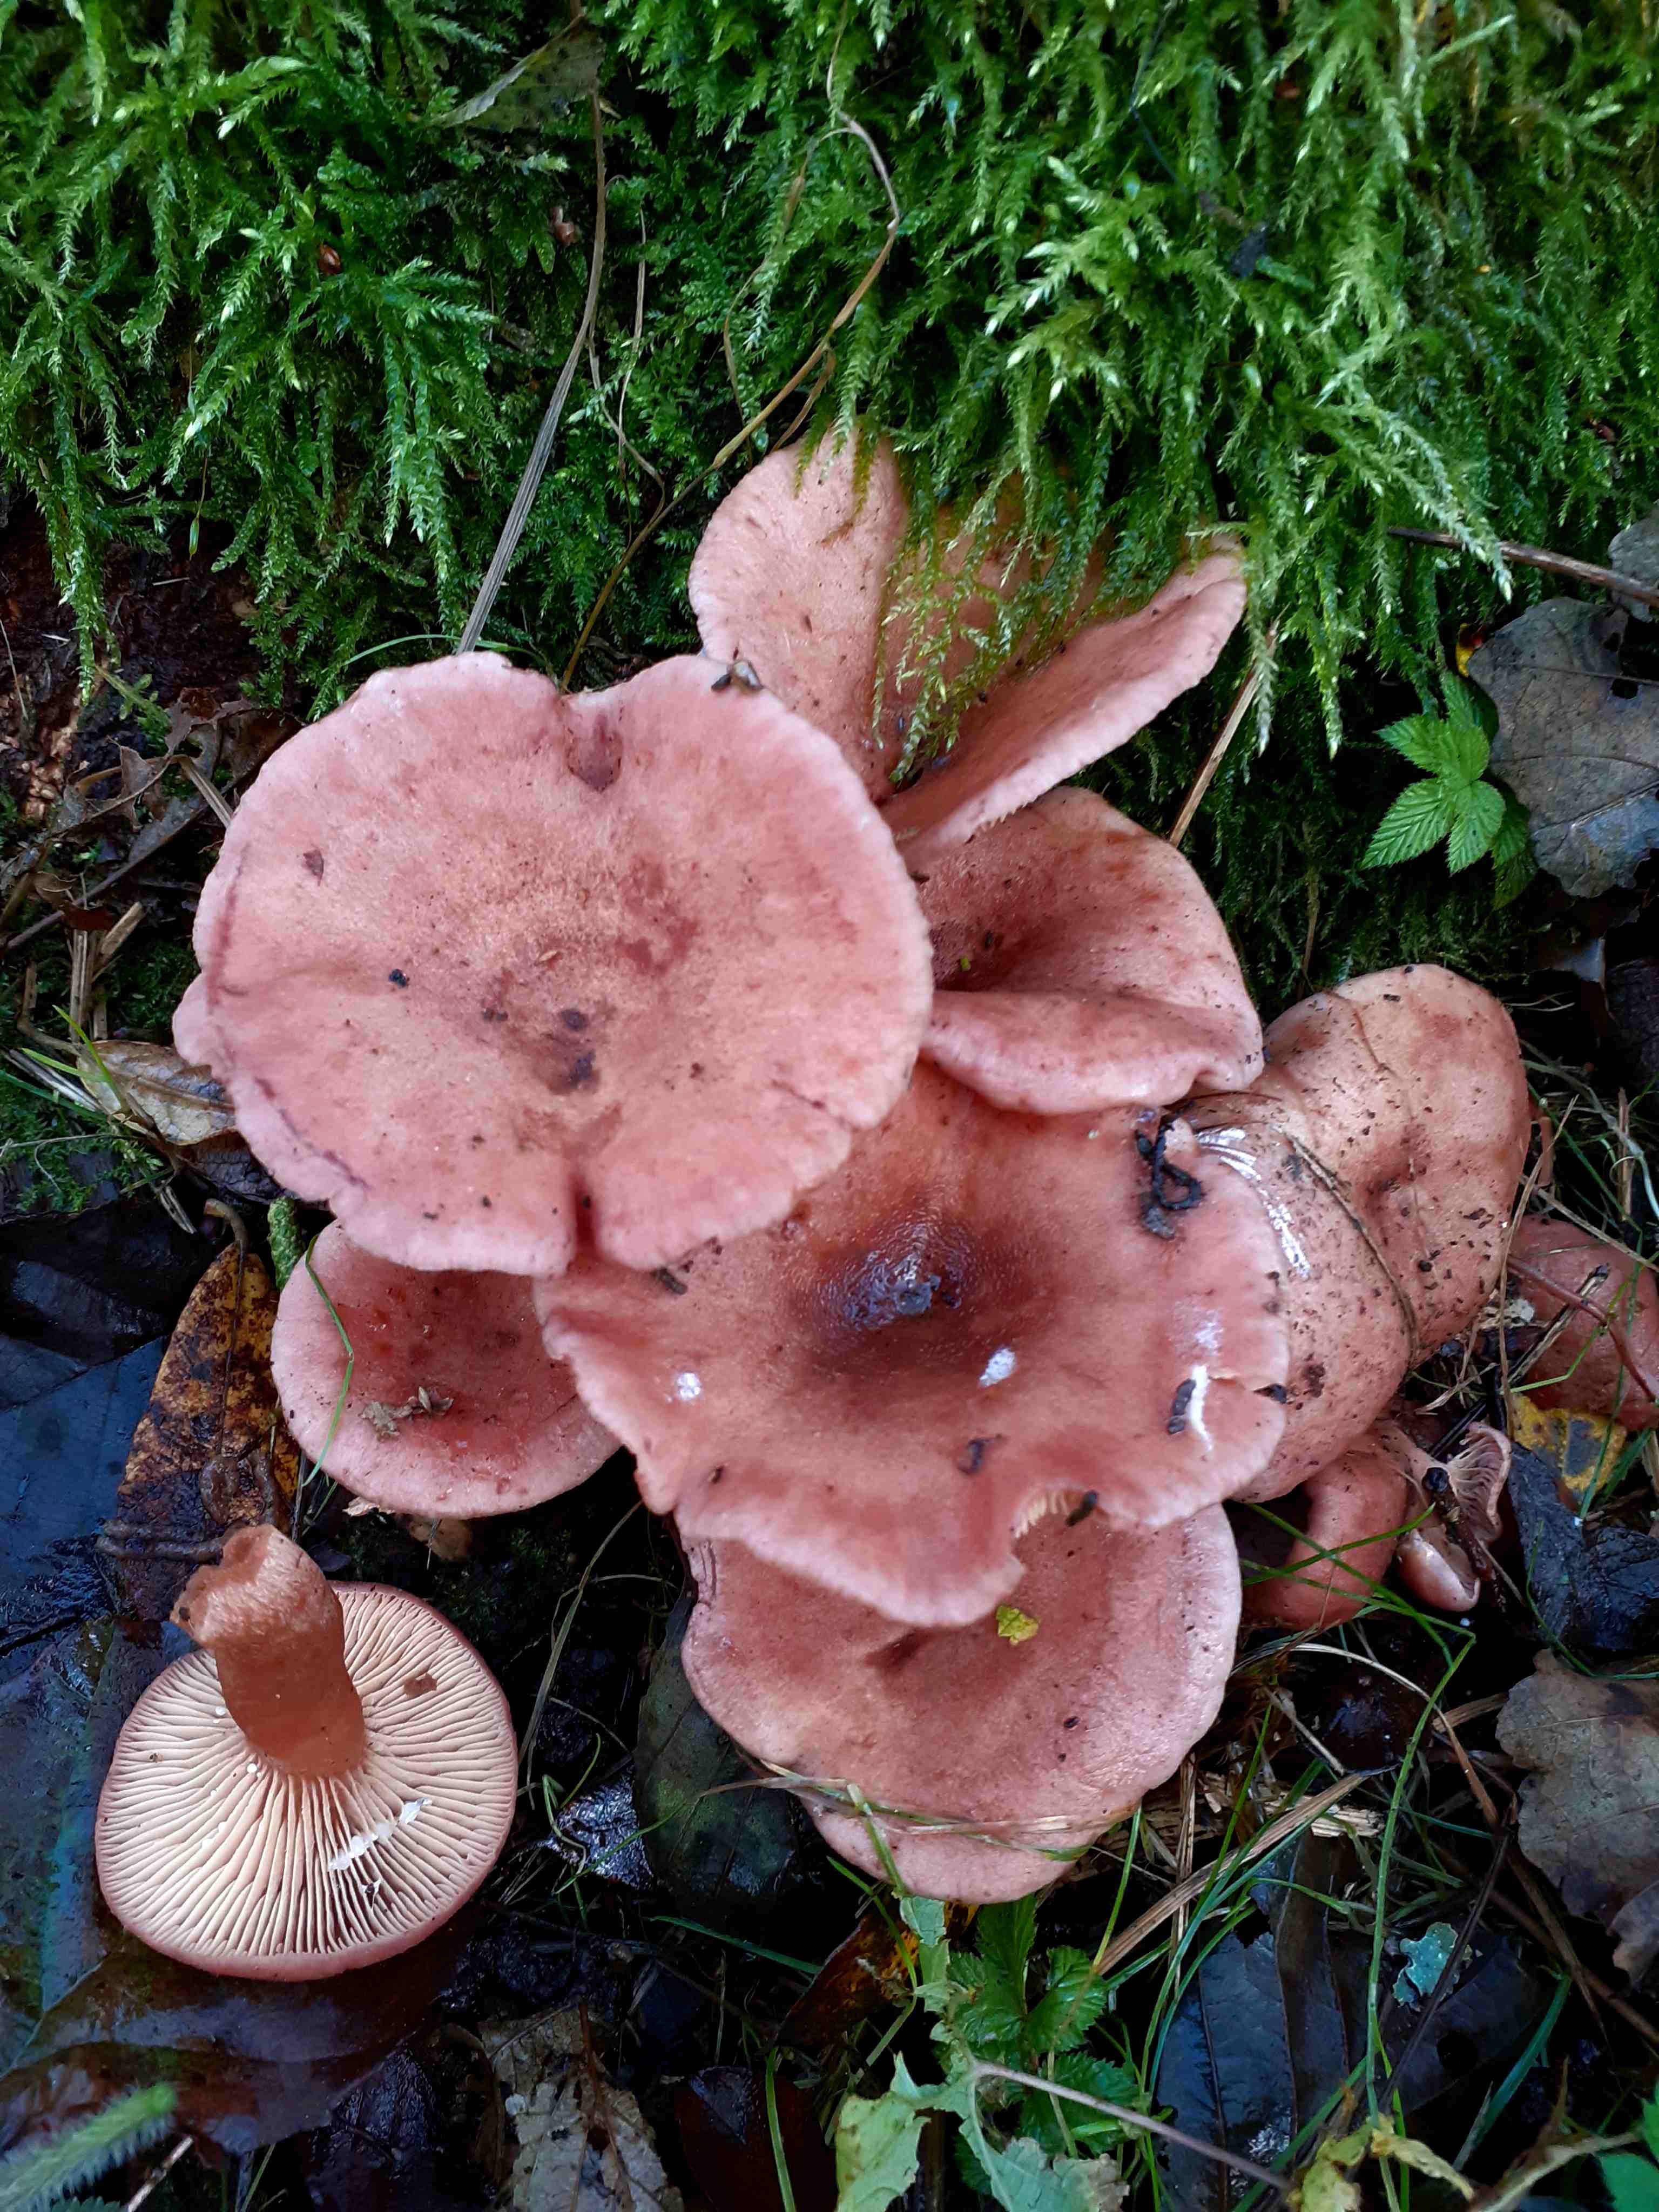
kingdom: Fungi
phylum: Basidiomycota
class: Agaricomycetes
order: Russulales
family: Russulaceae
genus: Lactarius
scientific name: Lactarius lilacinus
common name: lilla mælkehat
